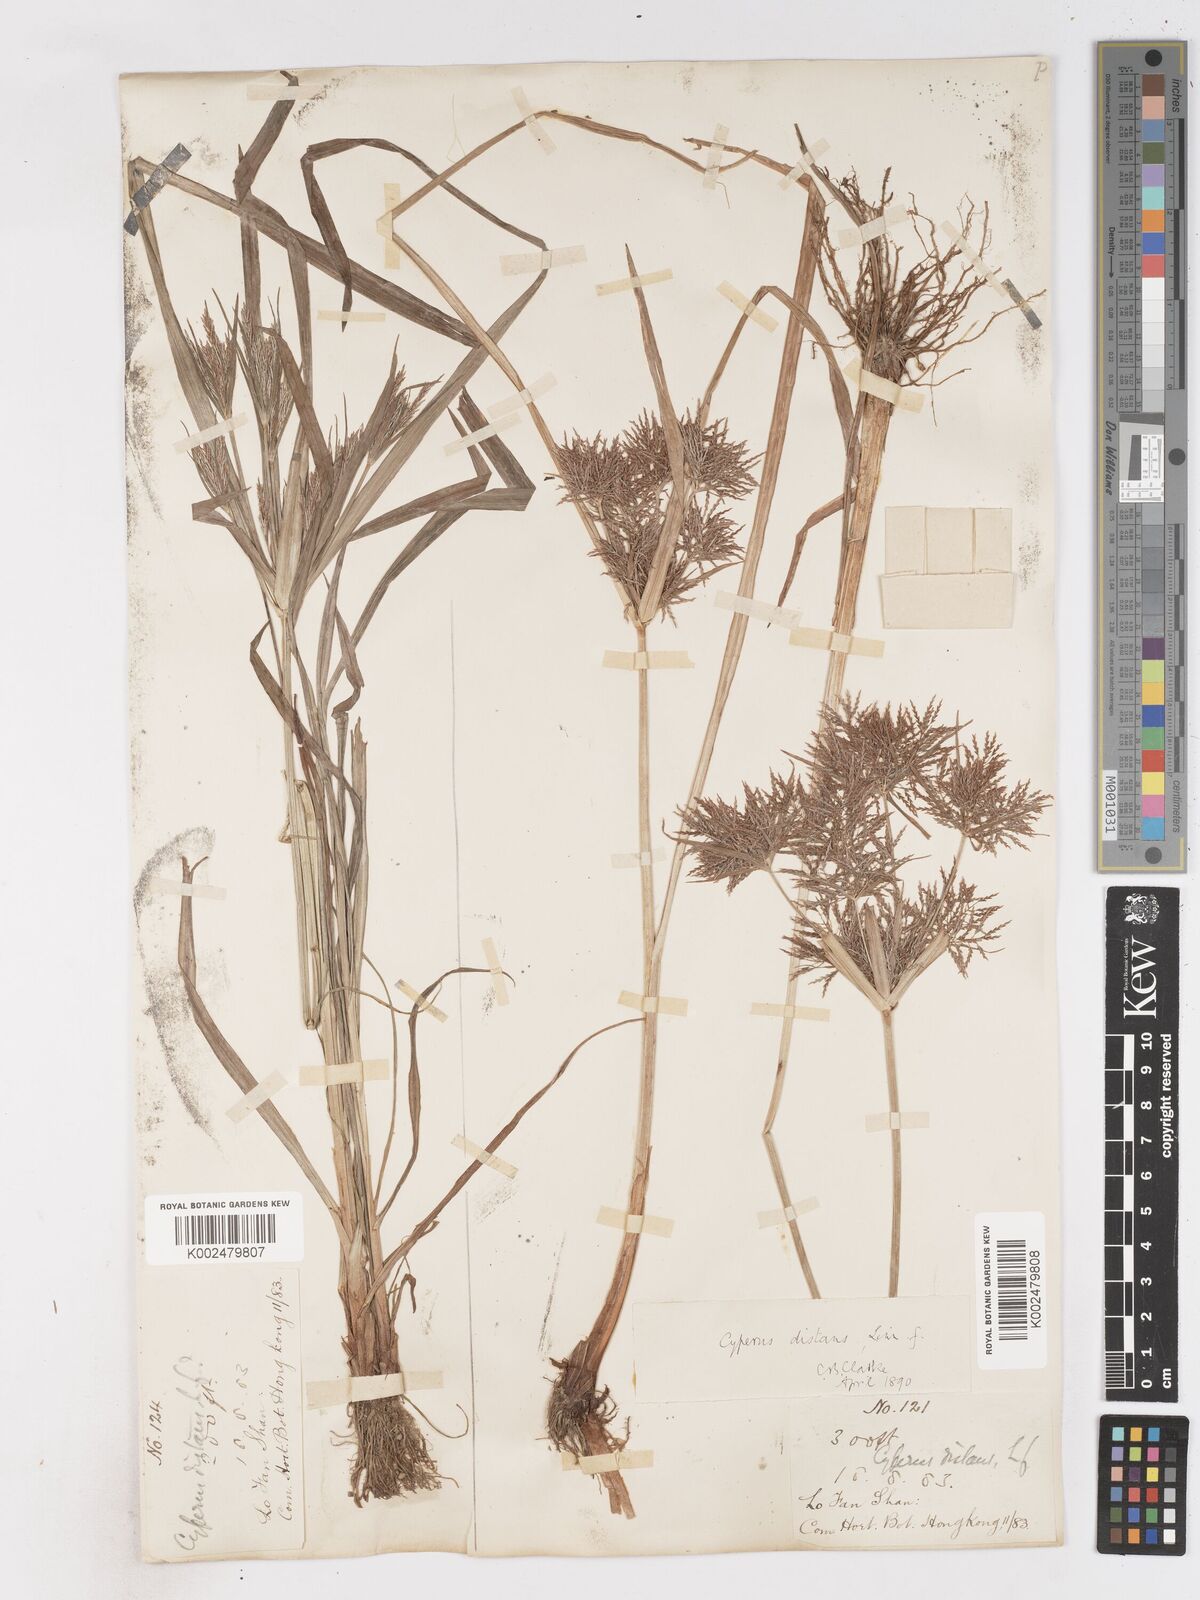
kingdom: Plantae
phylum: Tracheophyta
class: Liliopsida
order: Poales
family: Cyperaceae
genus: Cyperus
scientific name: Cyperus distans
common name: Slender cyperus
